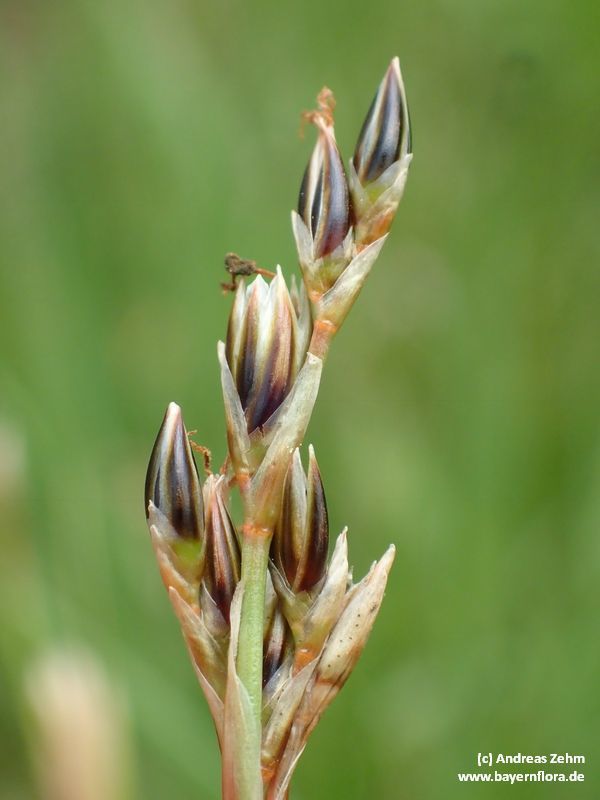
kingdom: Plantae
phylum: Tracheophyta
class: Liliopsida
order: Poales
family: Juncaceae
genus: Juncus
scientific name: Juncus squarrosus
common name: Heath rush
